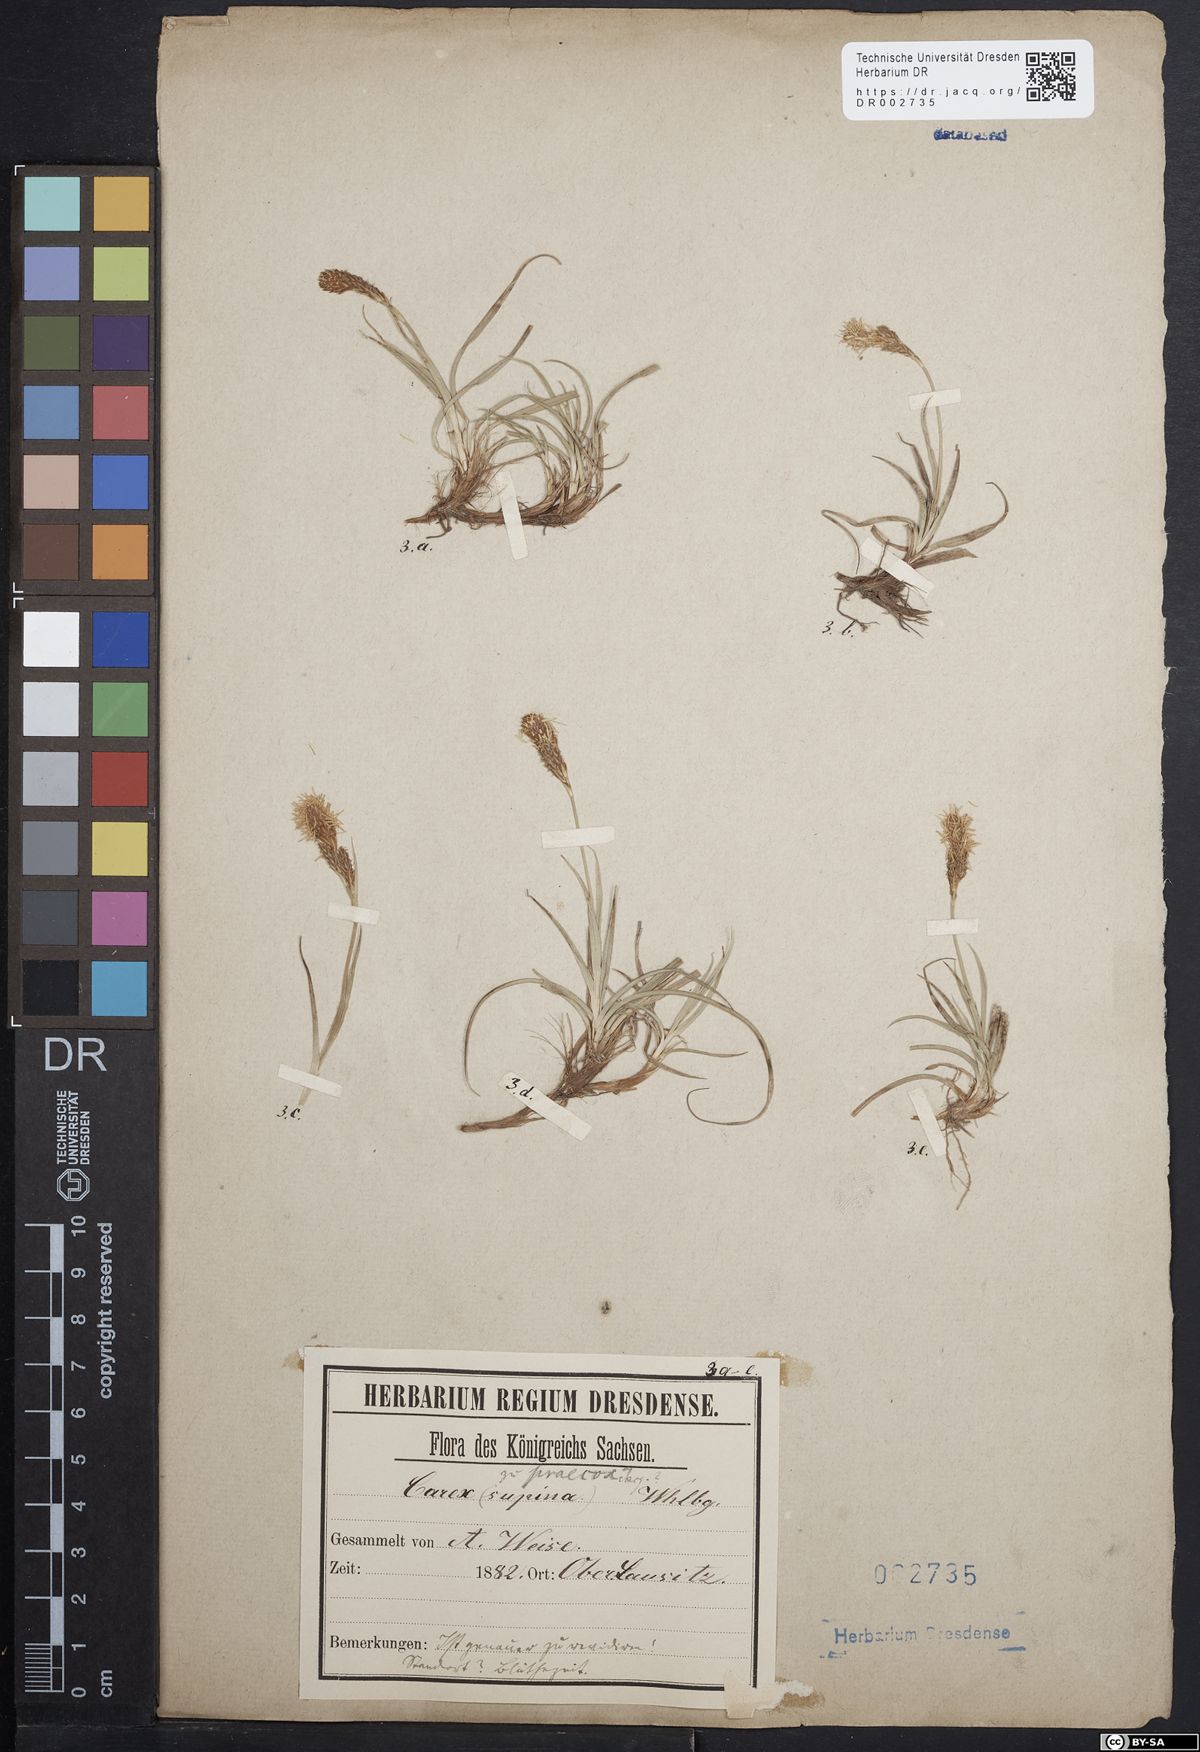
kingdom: Plantae
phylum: Tracheophyta
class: Liliopsida
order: Poales
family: Cyperaceae
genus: Carex
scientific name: Carex caryophyllea
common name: Spring sedge
